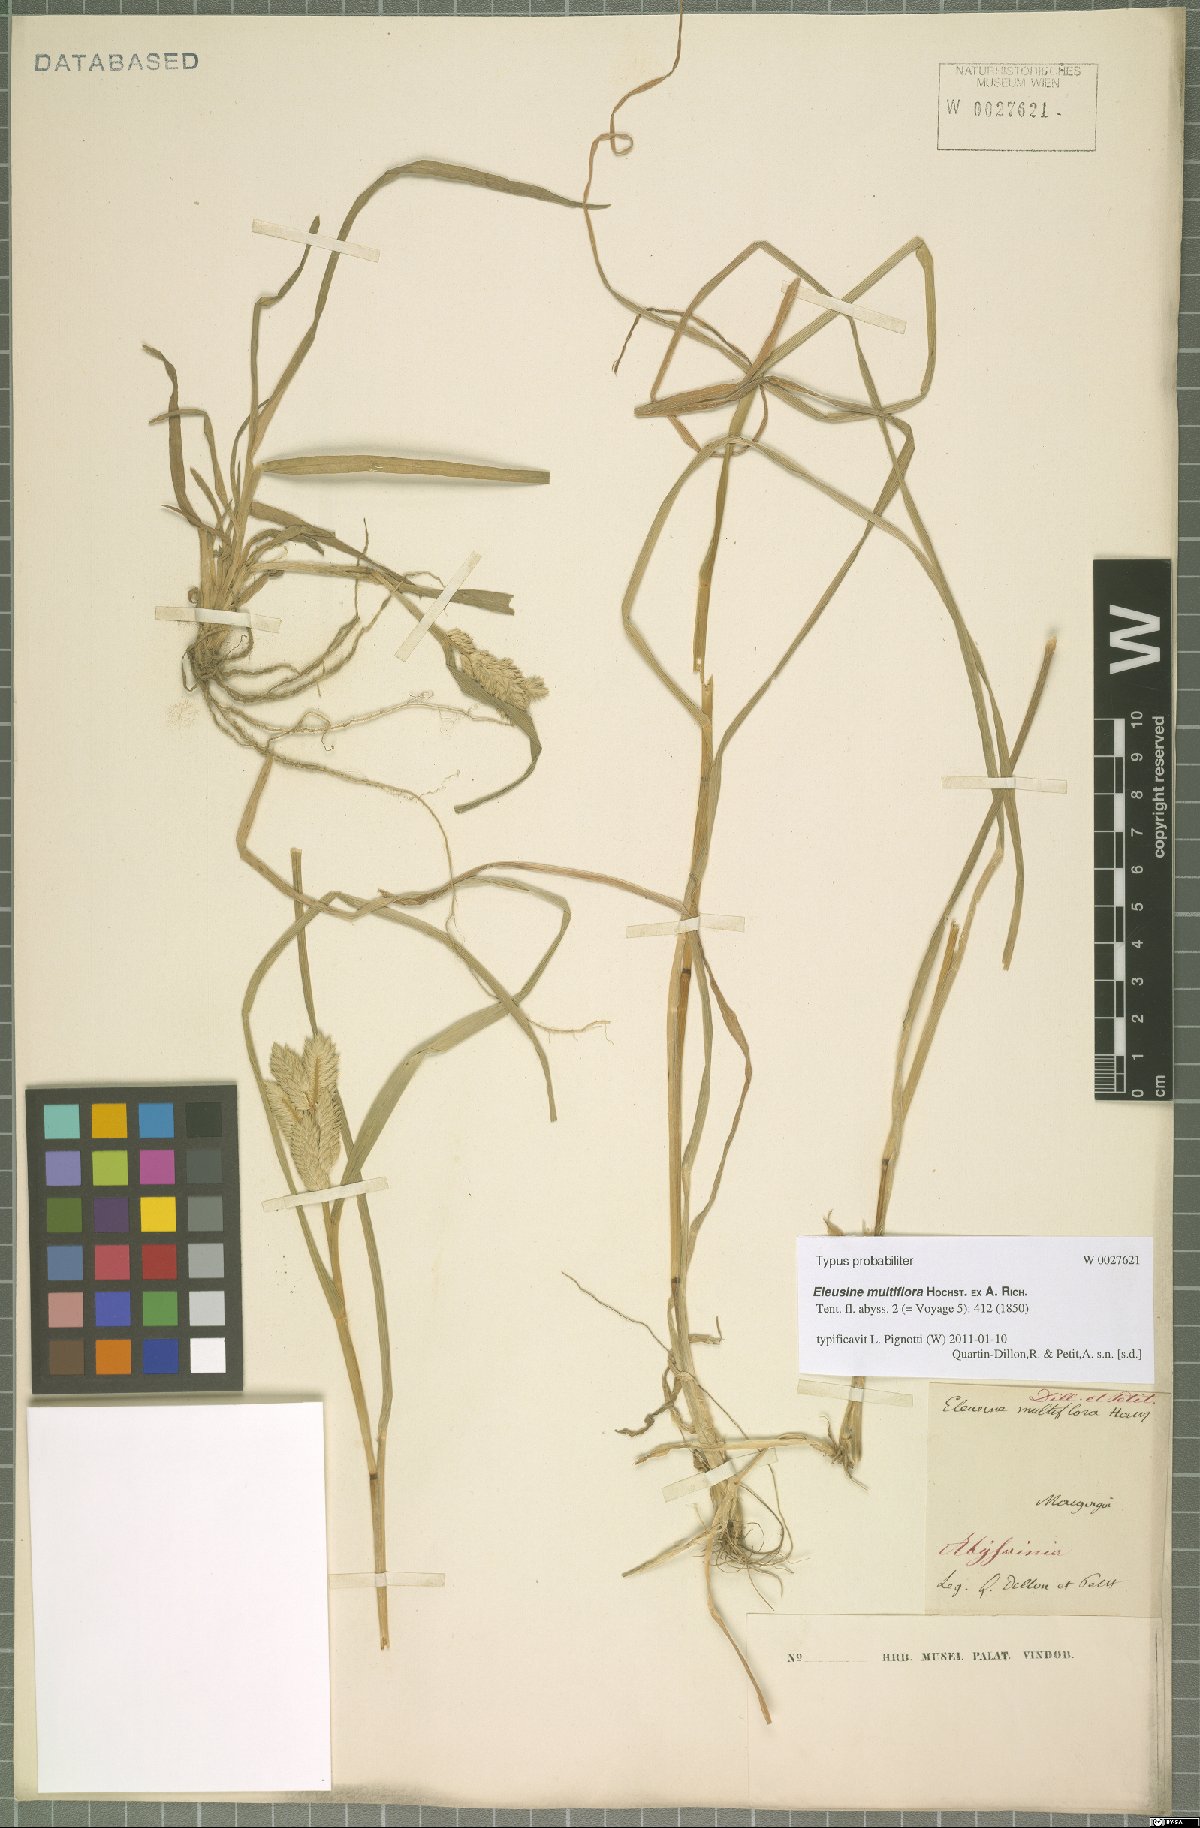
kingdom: Plantae
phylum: Tracheophyta
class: Liliopsida
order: Poales
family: Poaceae
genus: Eleusine
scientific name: Eleusine multiflora
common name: Fat-spiked yard-grass
